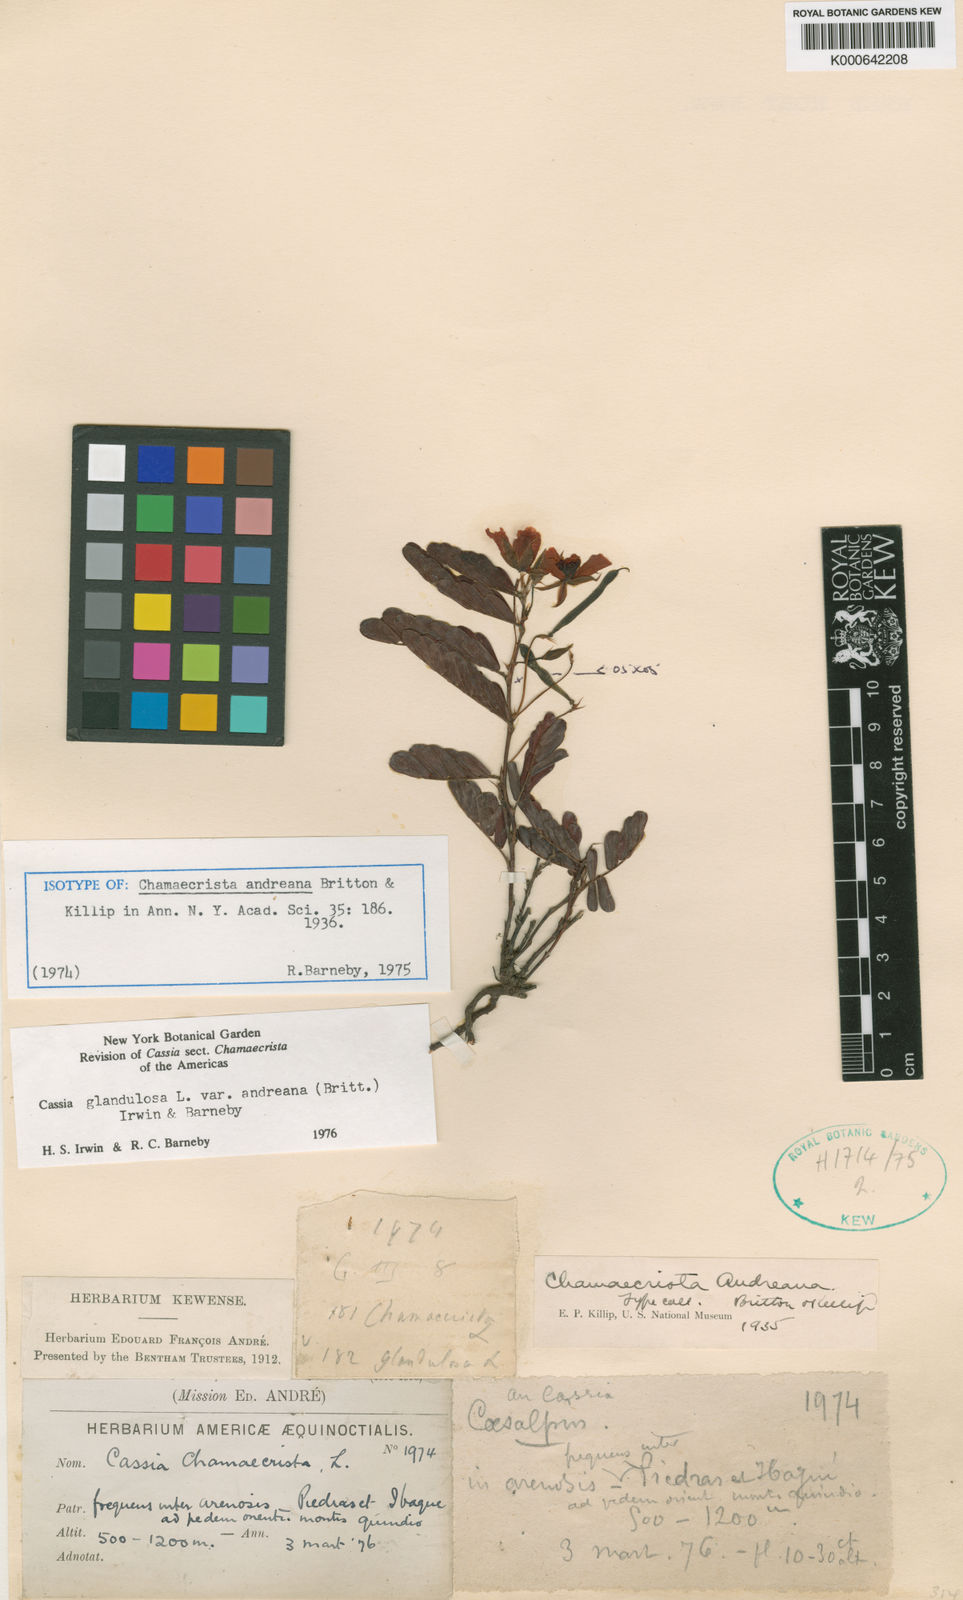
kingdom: Plantae
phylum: Tracheophyta
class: Magnoliopsida
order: Fabales
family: Fabaceae
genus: Chamaecrista
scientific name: Chamaecrista glandulosa
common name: Wild peas
